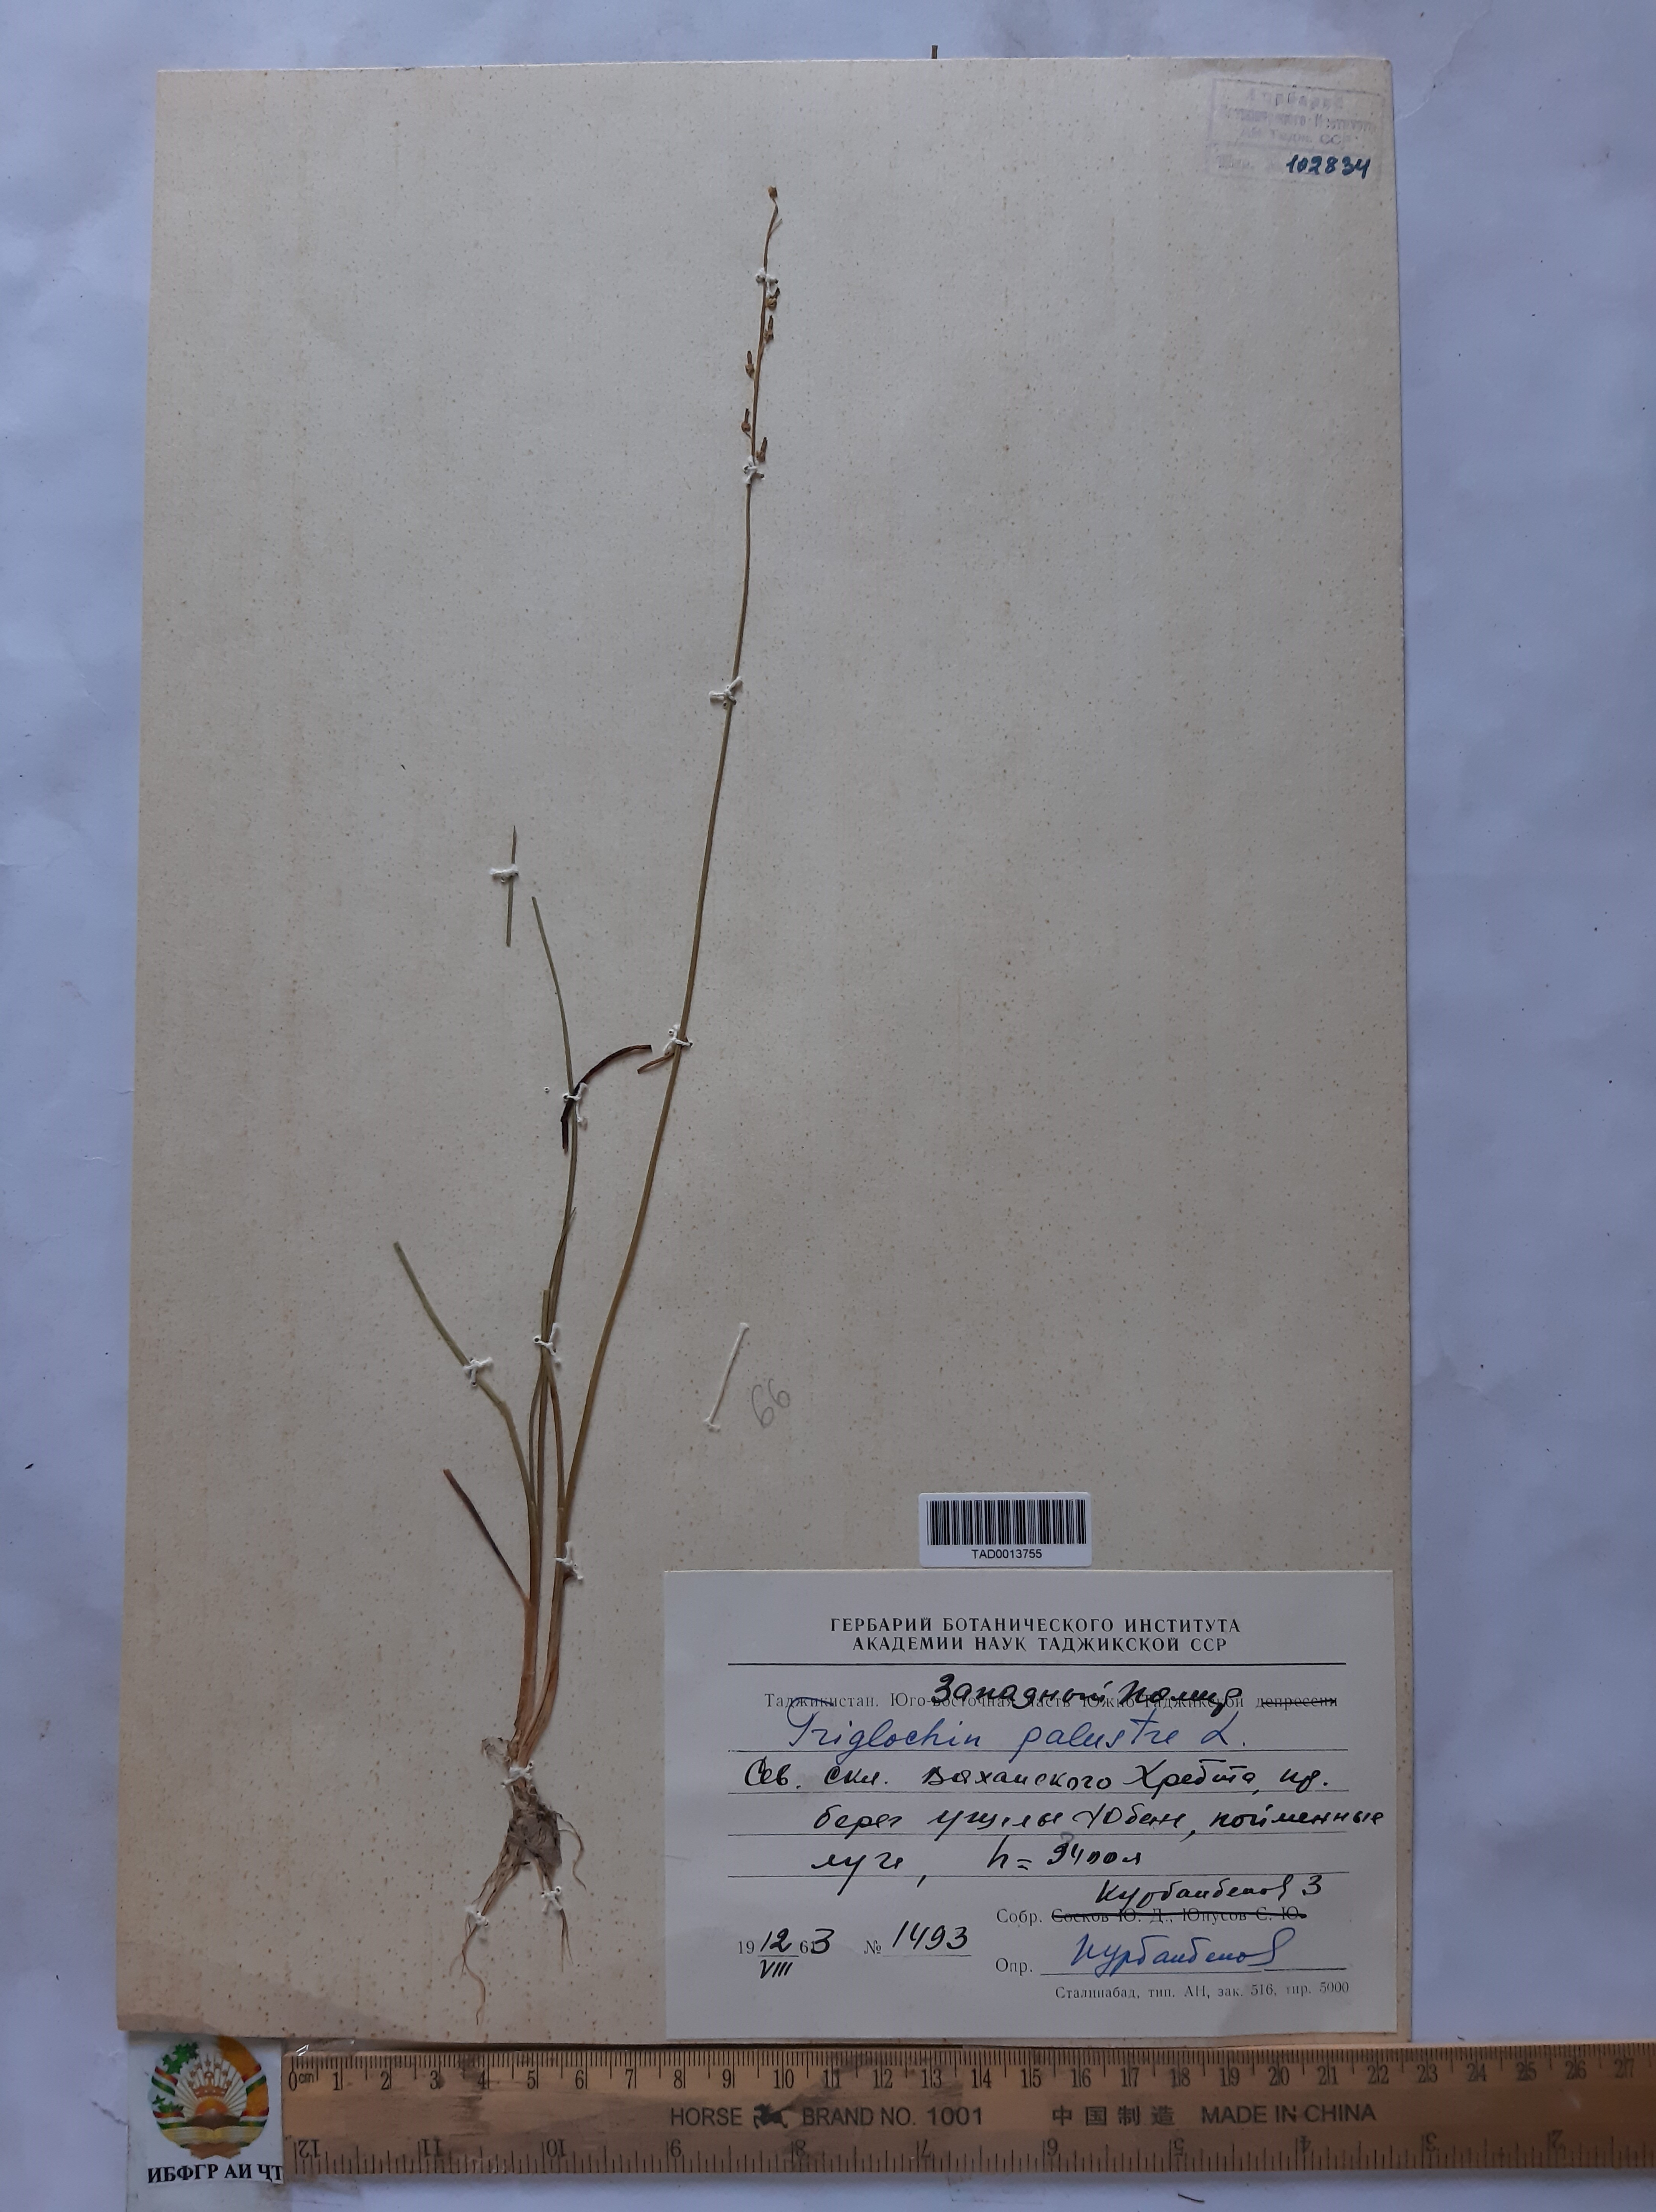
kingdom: Plantae
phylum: Tracheophyta
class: Liliopsida
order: Alismatales
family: Juncaginaceae
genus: Triglochin
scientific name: Triglochin palustris
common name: Marsh arrowgrass
